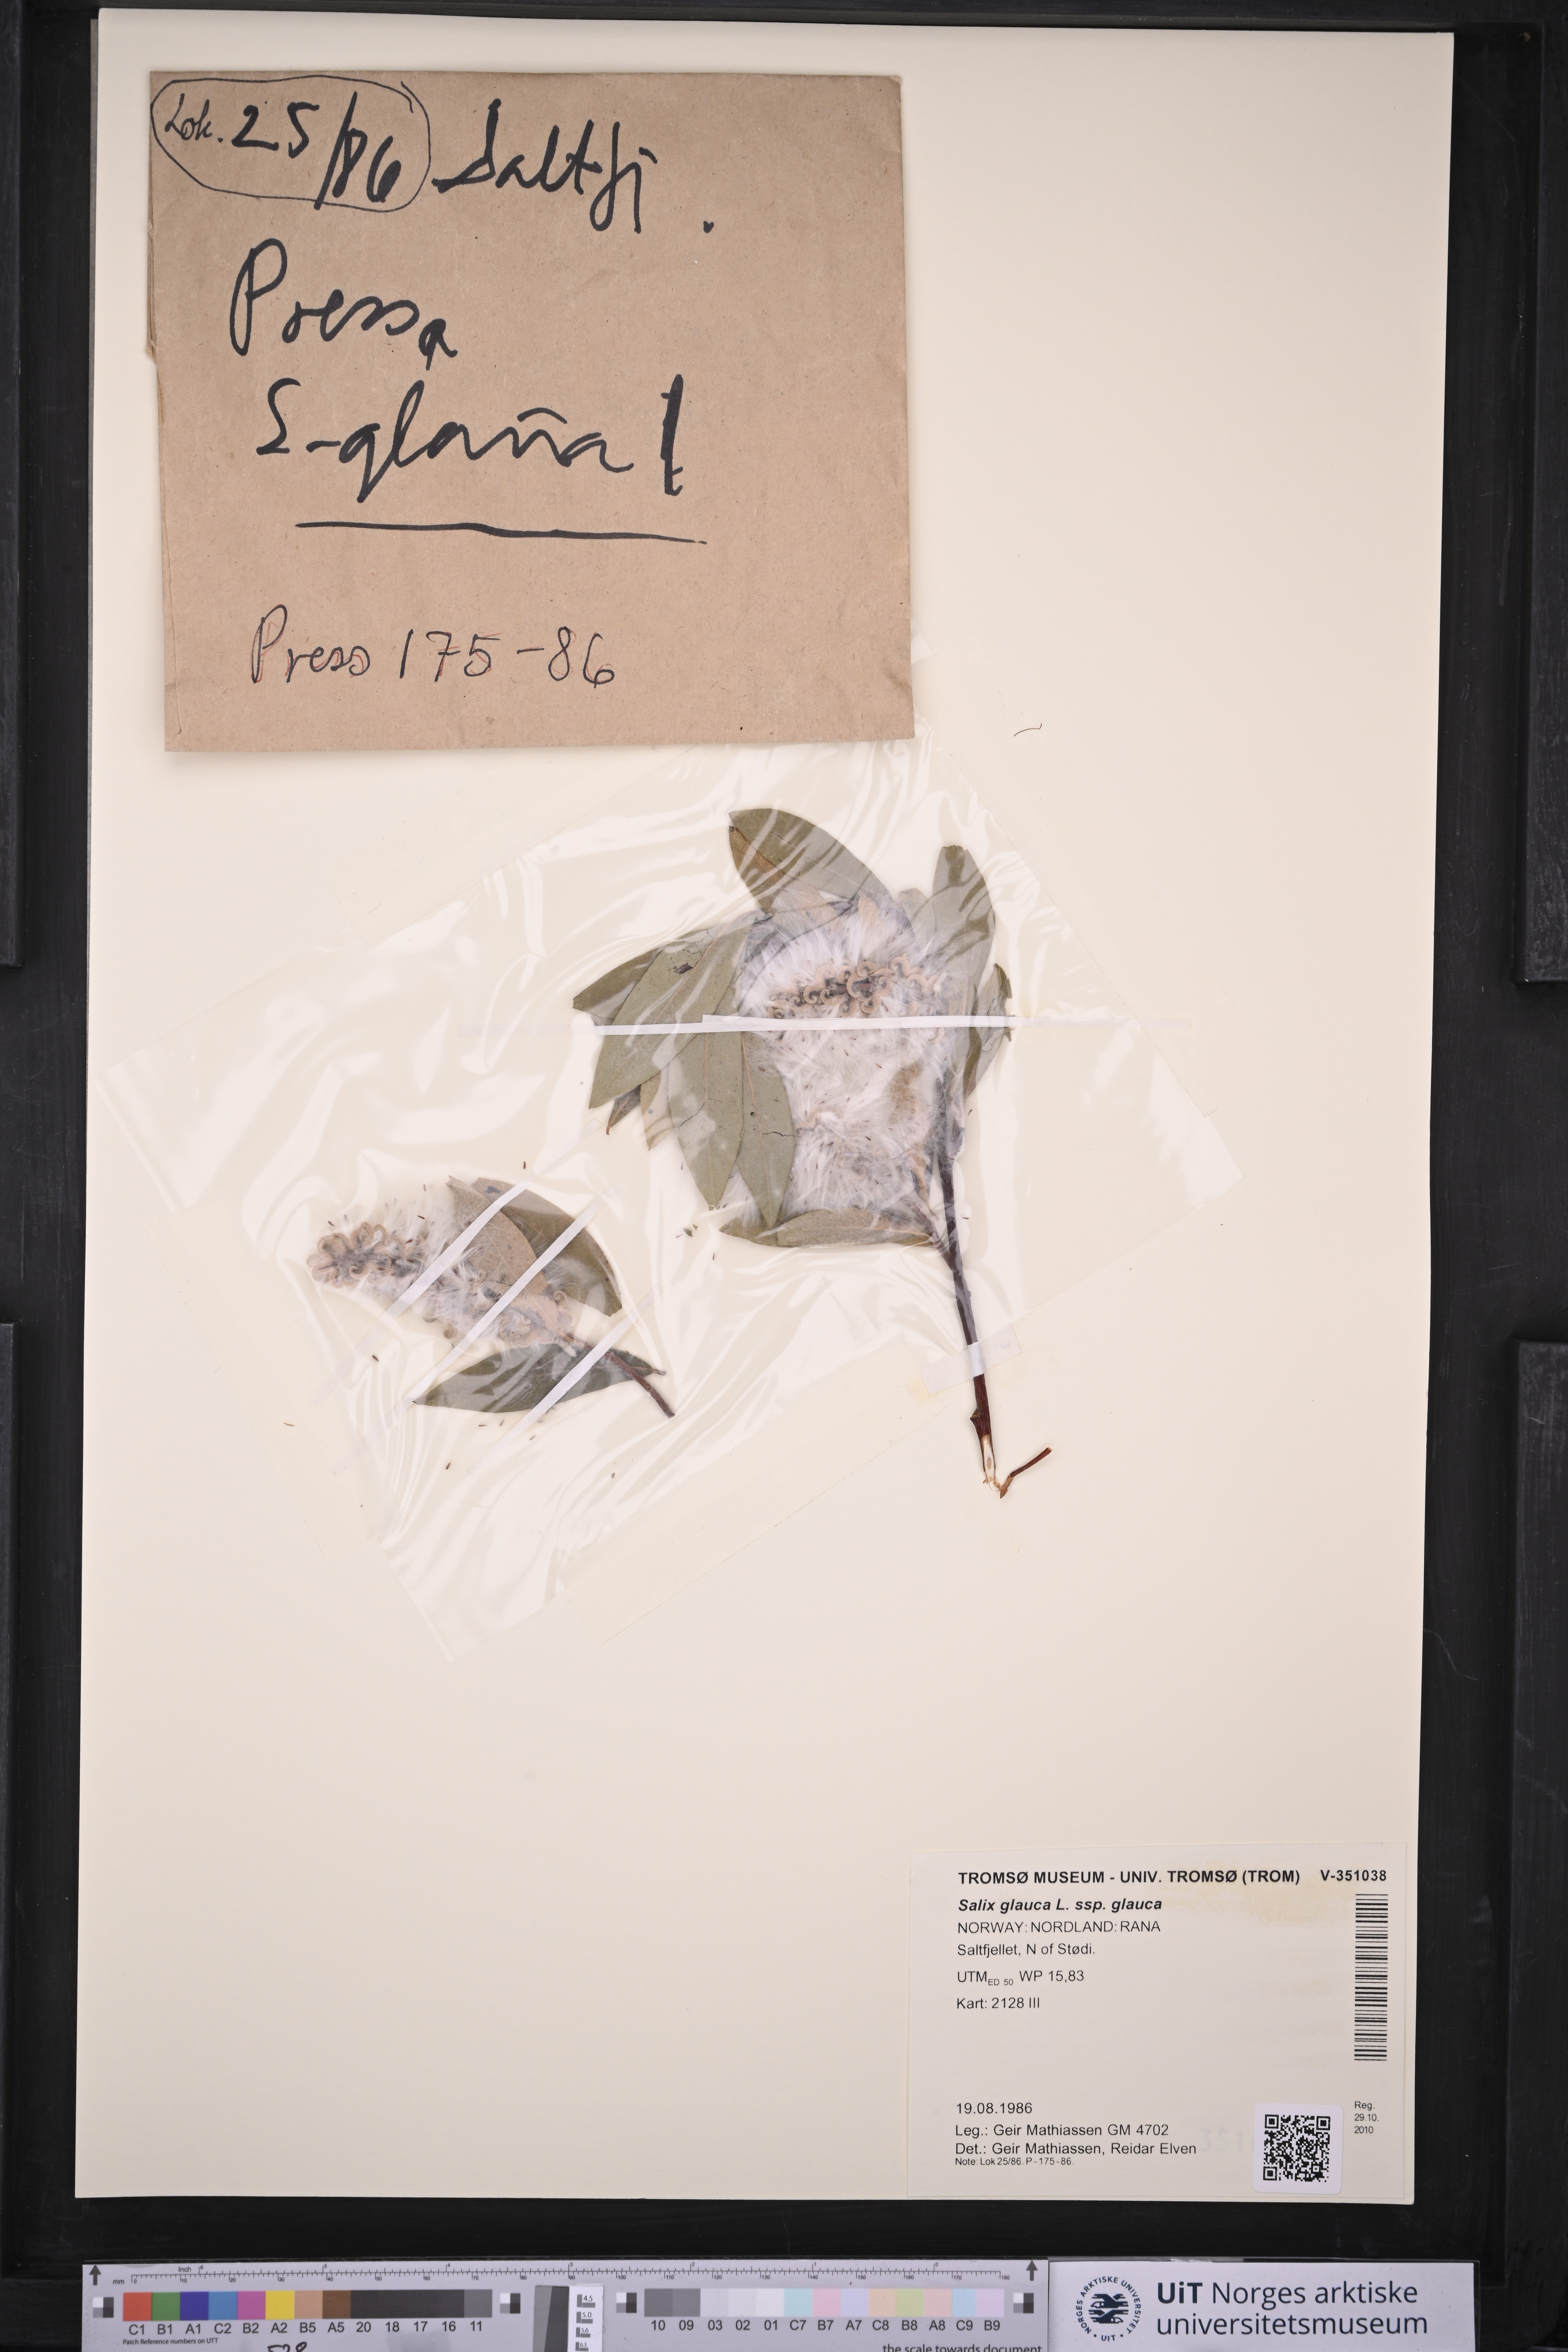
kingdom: Plantae
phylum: Tracheophyta
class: Magnoliopsida
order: Malpighiales
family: Salicaceae
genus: Salix
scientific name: Salix glauca
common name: Glaucous willow
